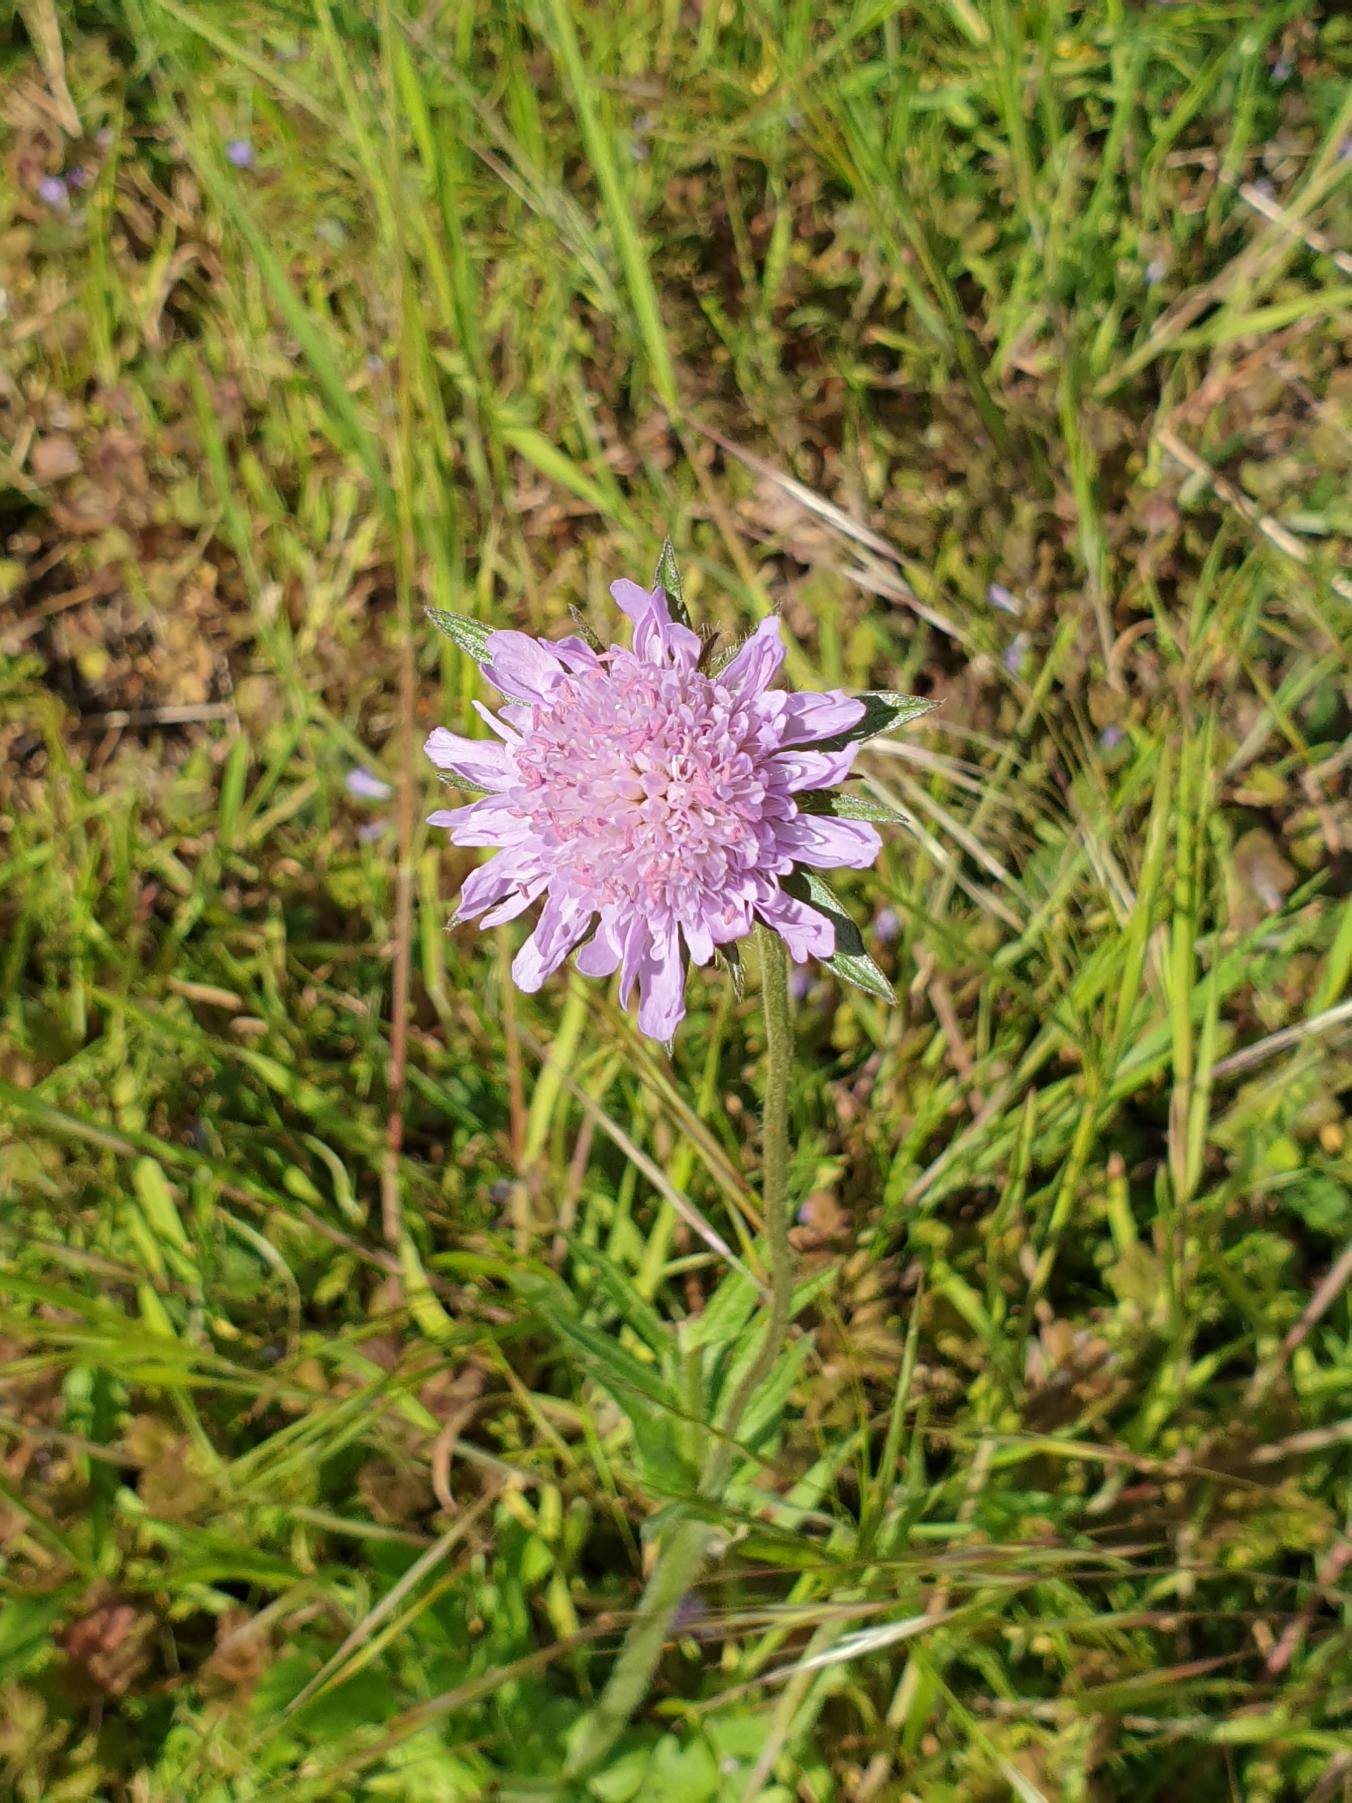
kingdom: Plantae
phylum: Tracheophyta
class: Magnoliopsida
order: Dipsacales
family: Caprifoliaceae
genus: Knautia
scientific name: Knautia arvensis
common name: Blåhat
